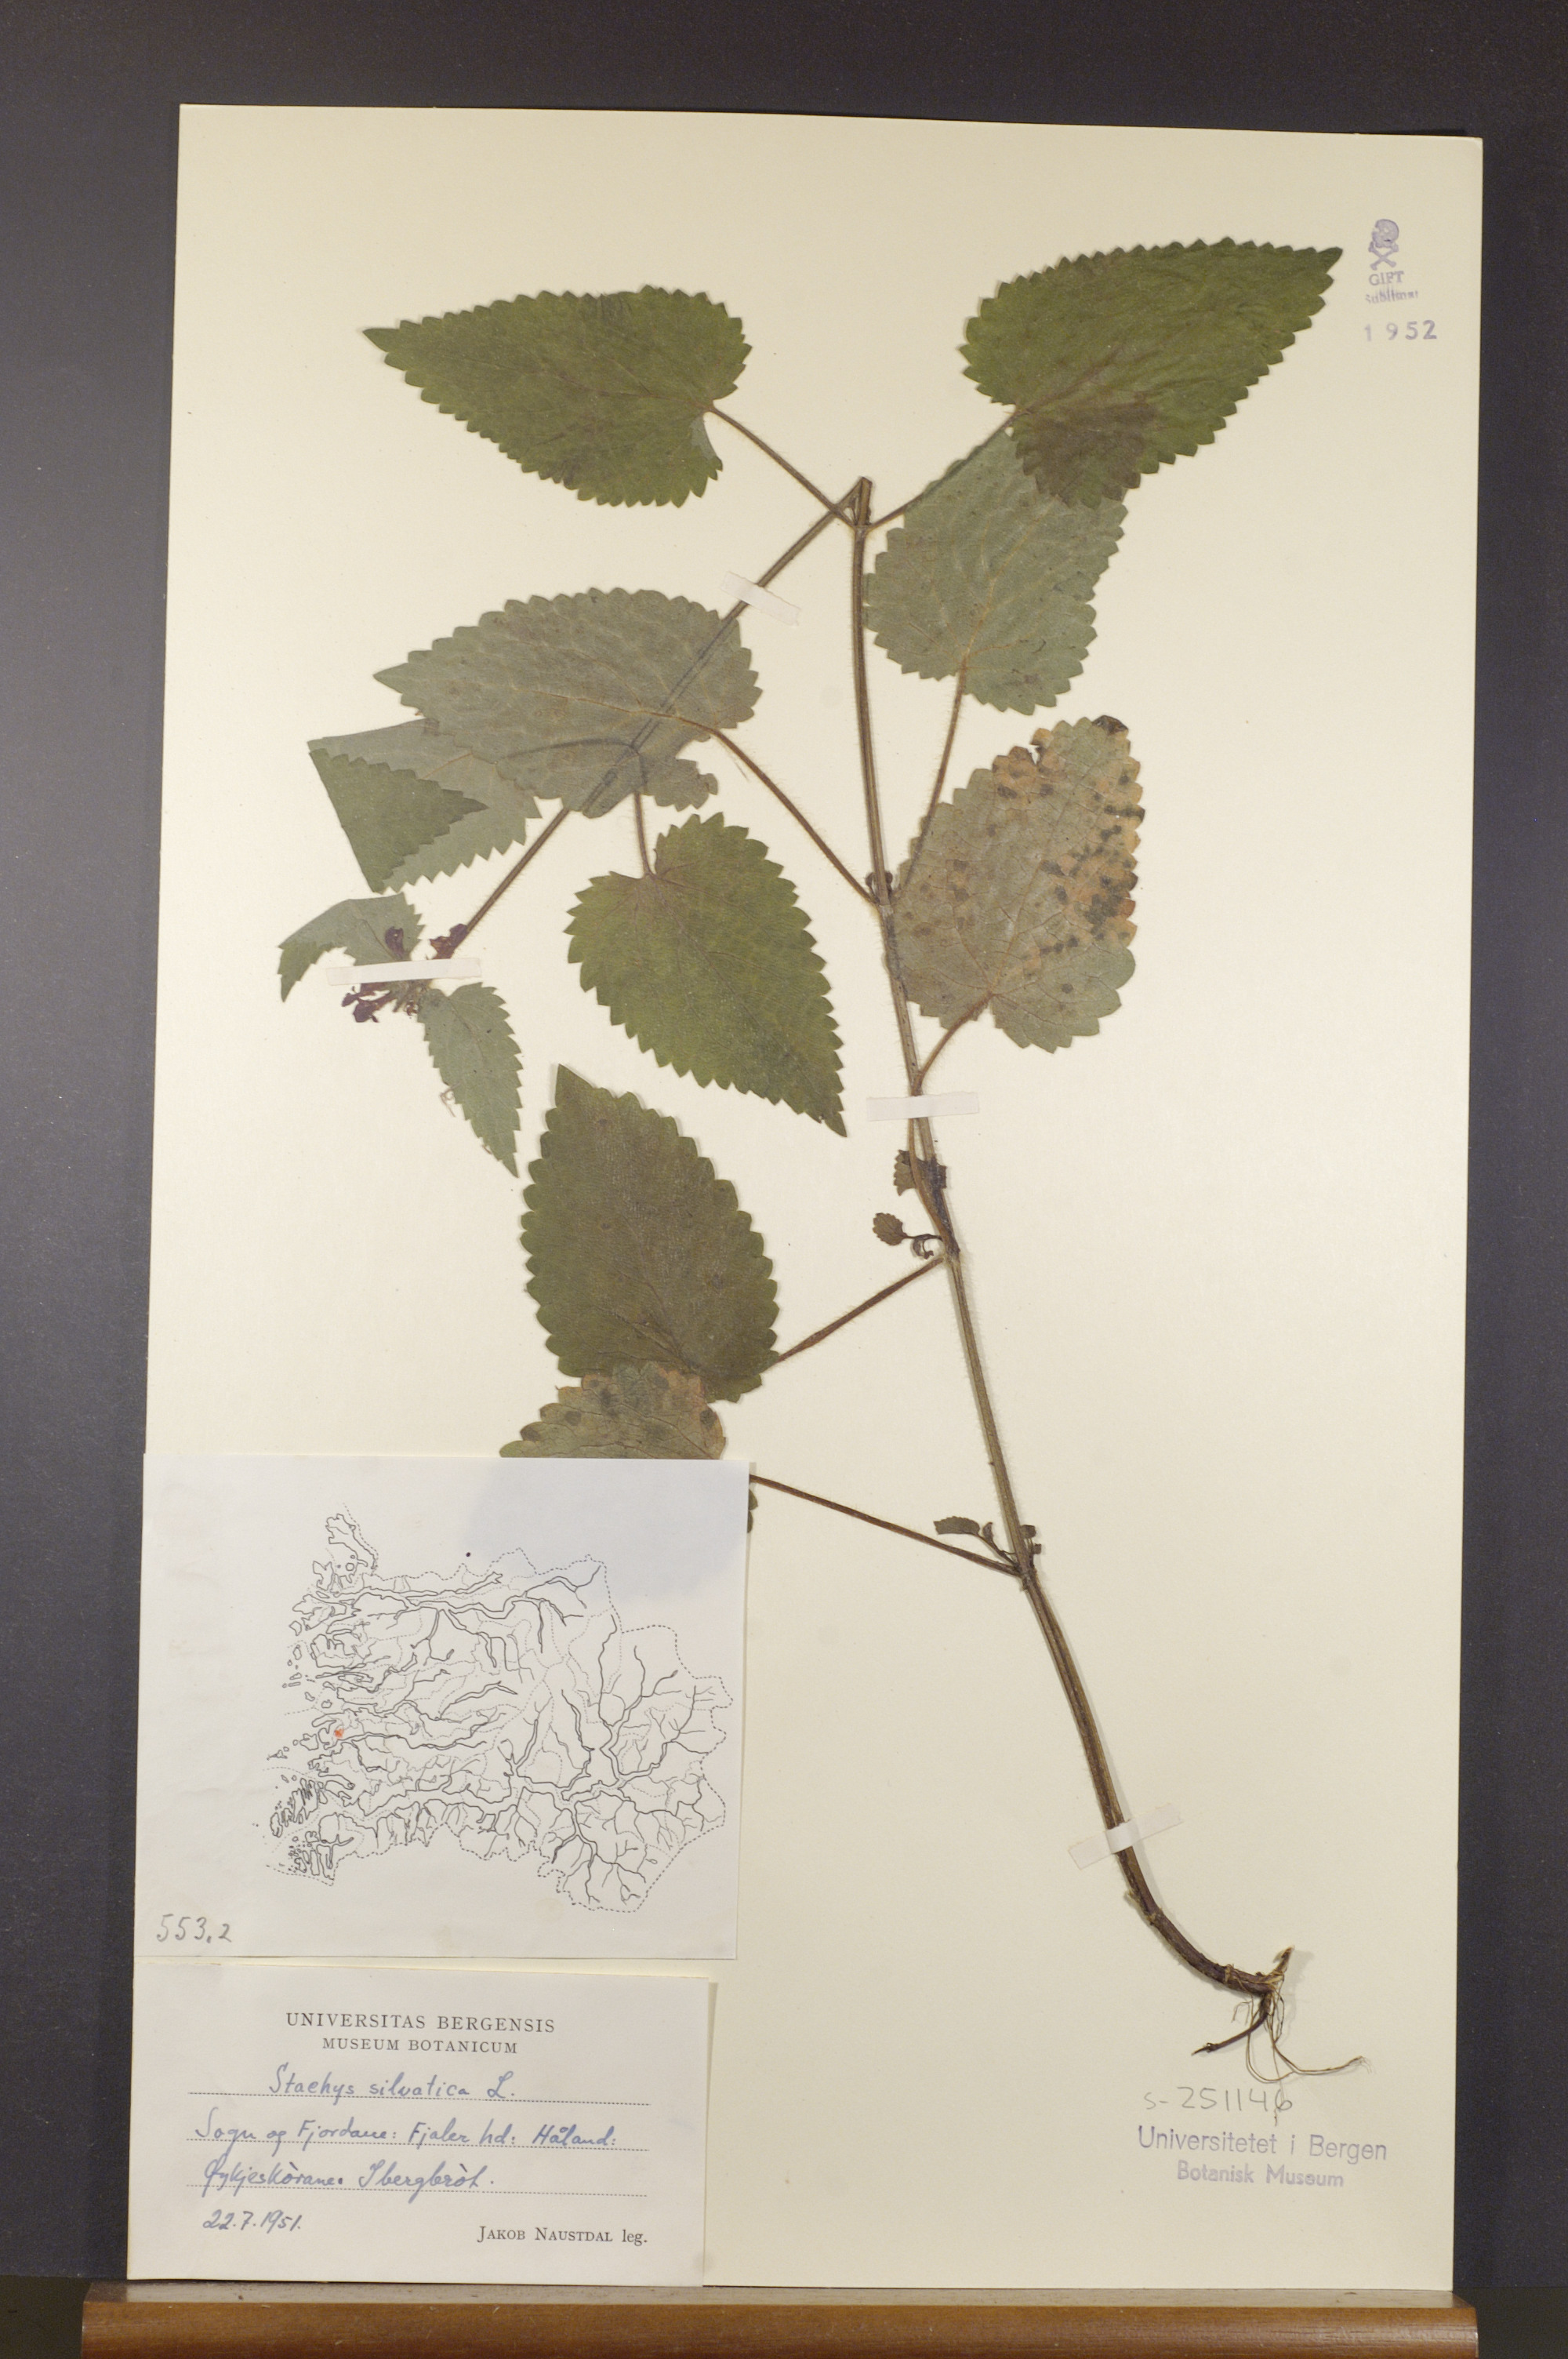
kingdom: Plantae
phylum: Tracheophyta
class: Magnoliopsida
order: Lamiales
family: Lamiaceae
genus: Stachys
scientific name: Stachys sylvatica
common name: Hedge woundwort
